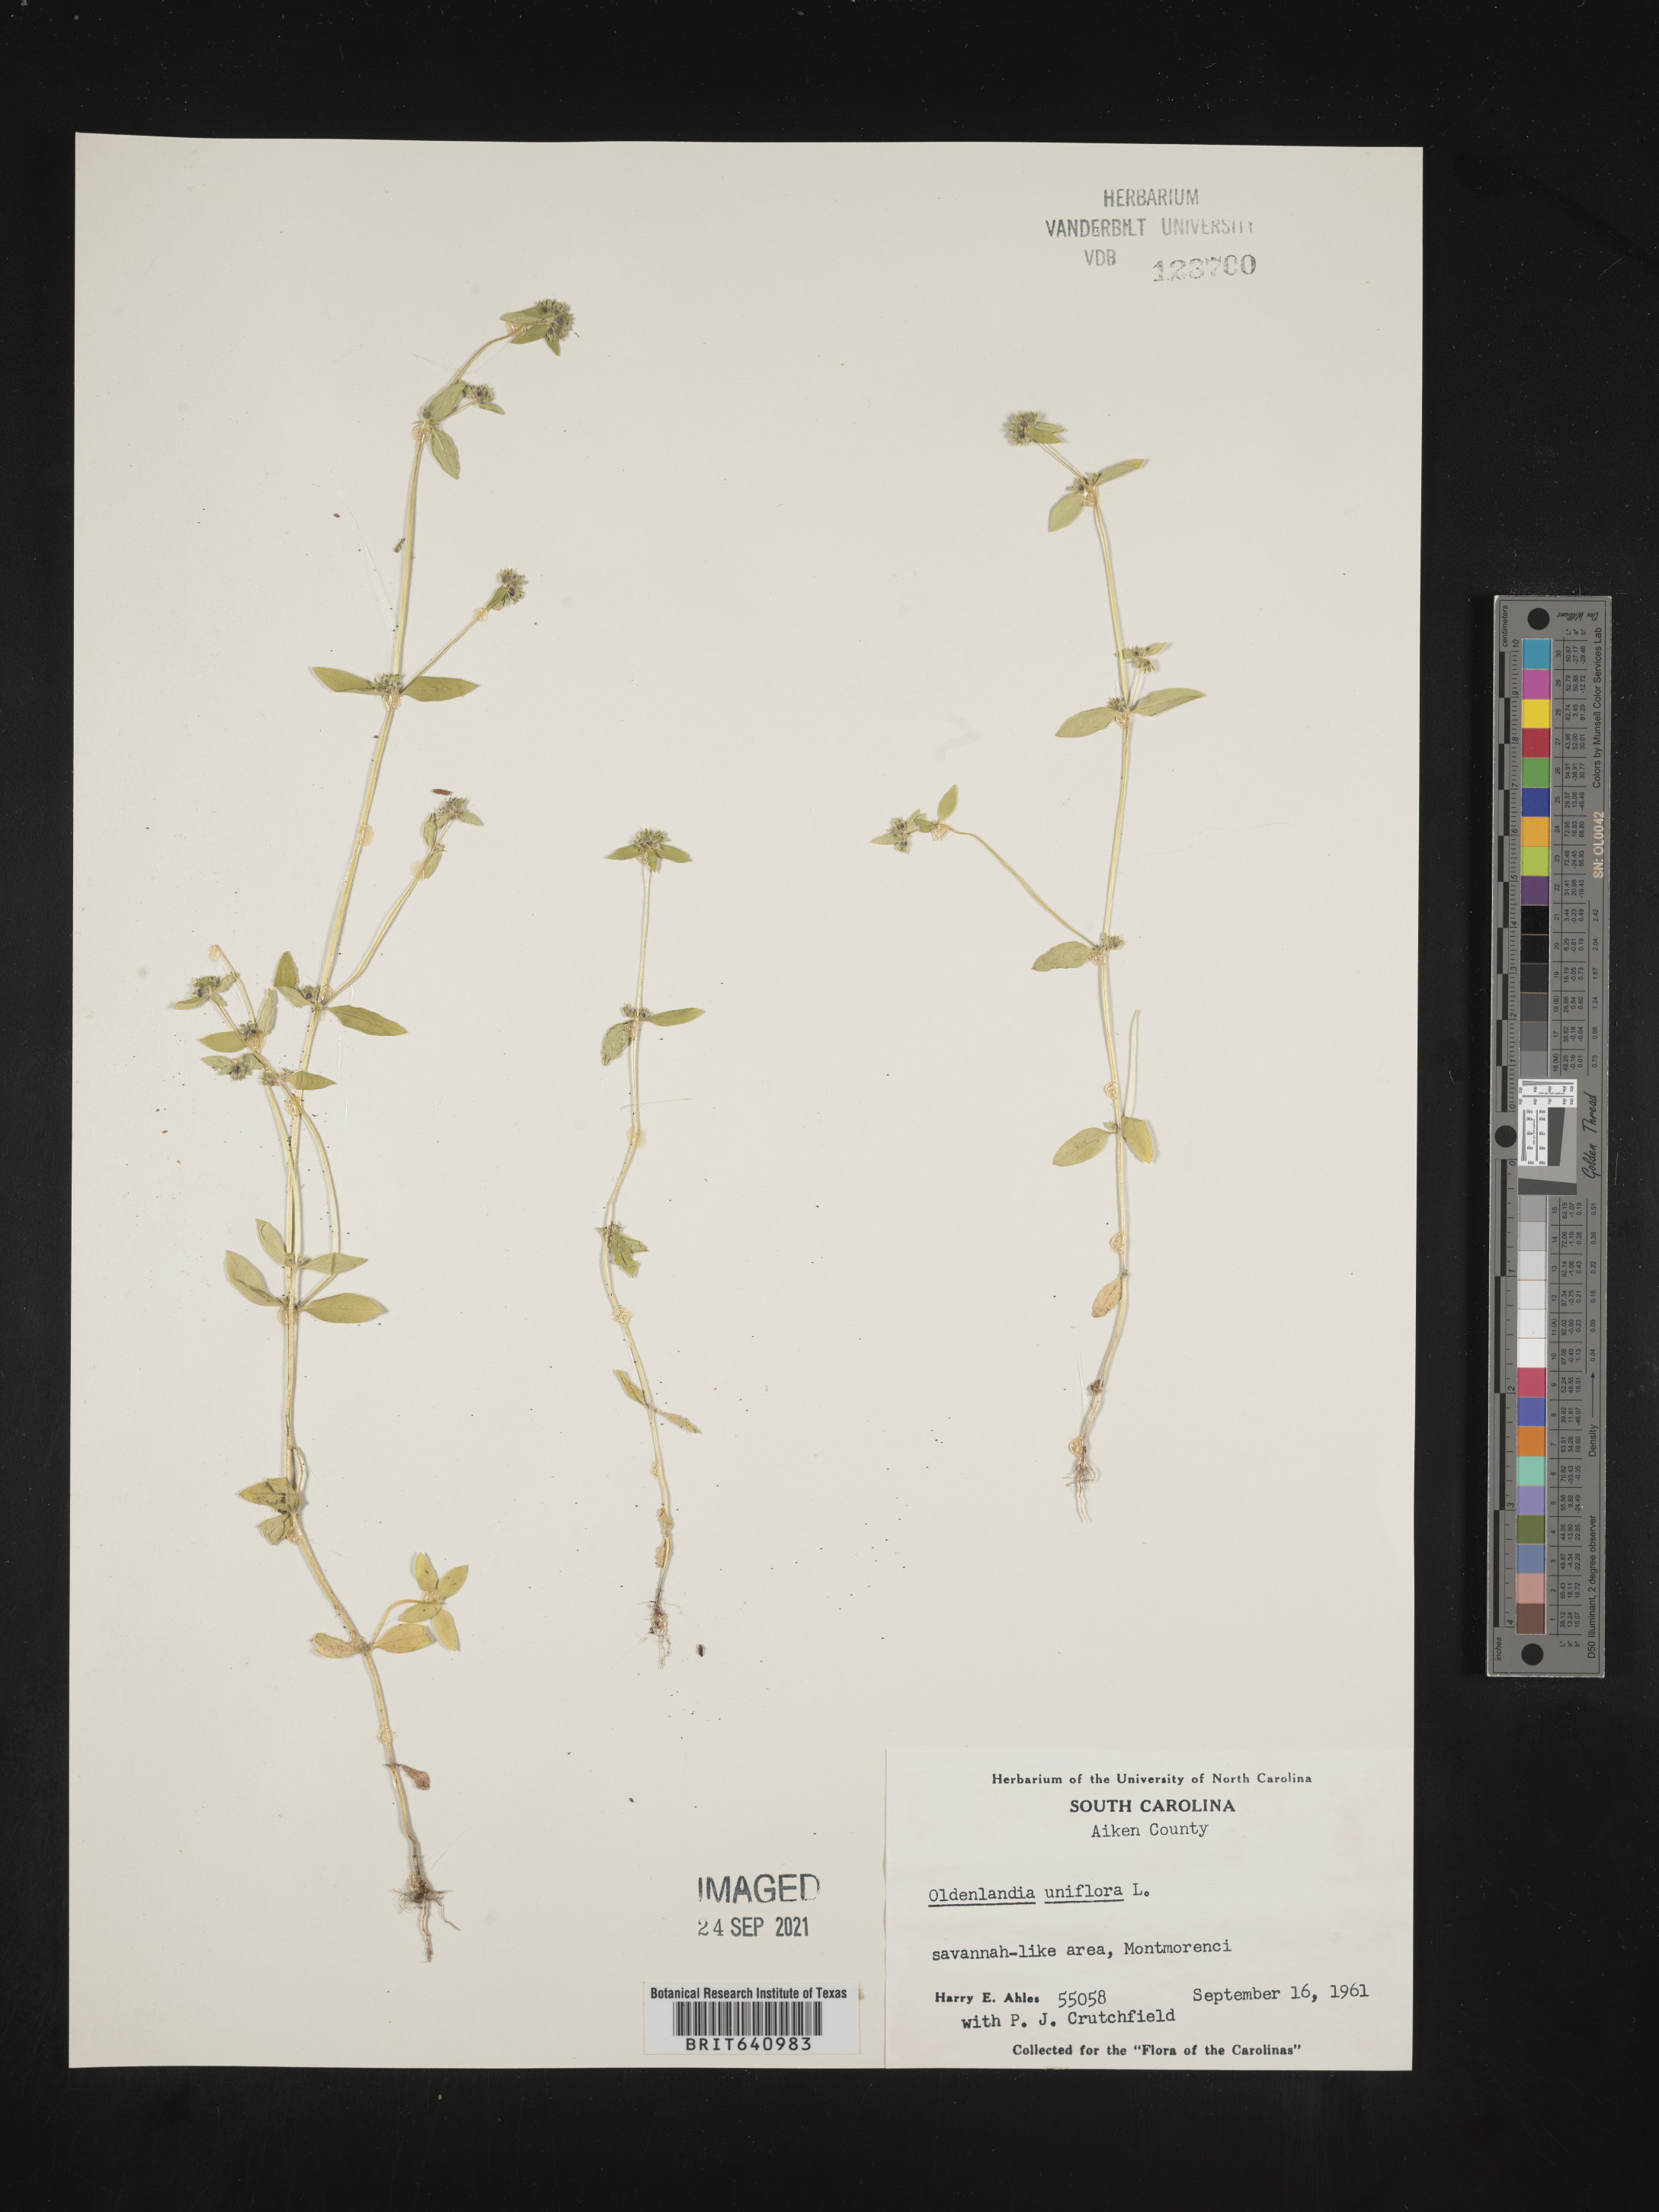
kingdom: Plantae
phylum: Tracheophyta
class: Magnoliopsida
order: Gentianales
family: Rubiaceae
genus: Edrastima
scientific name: Edrastima uniflora
